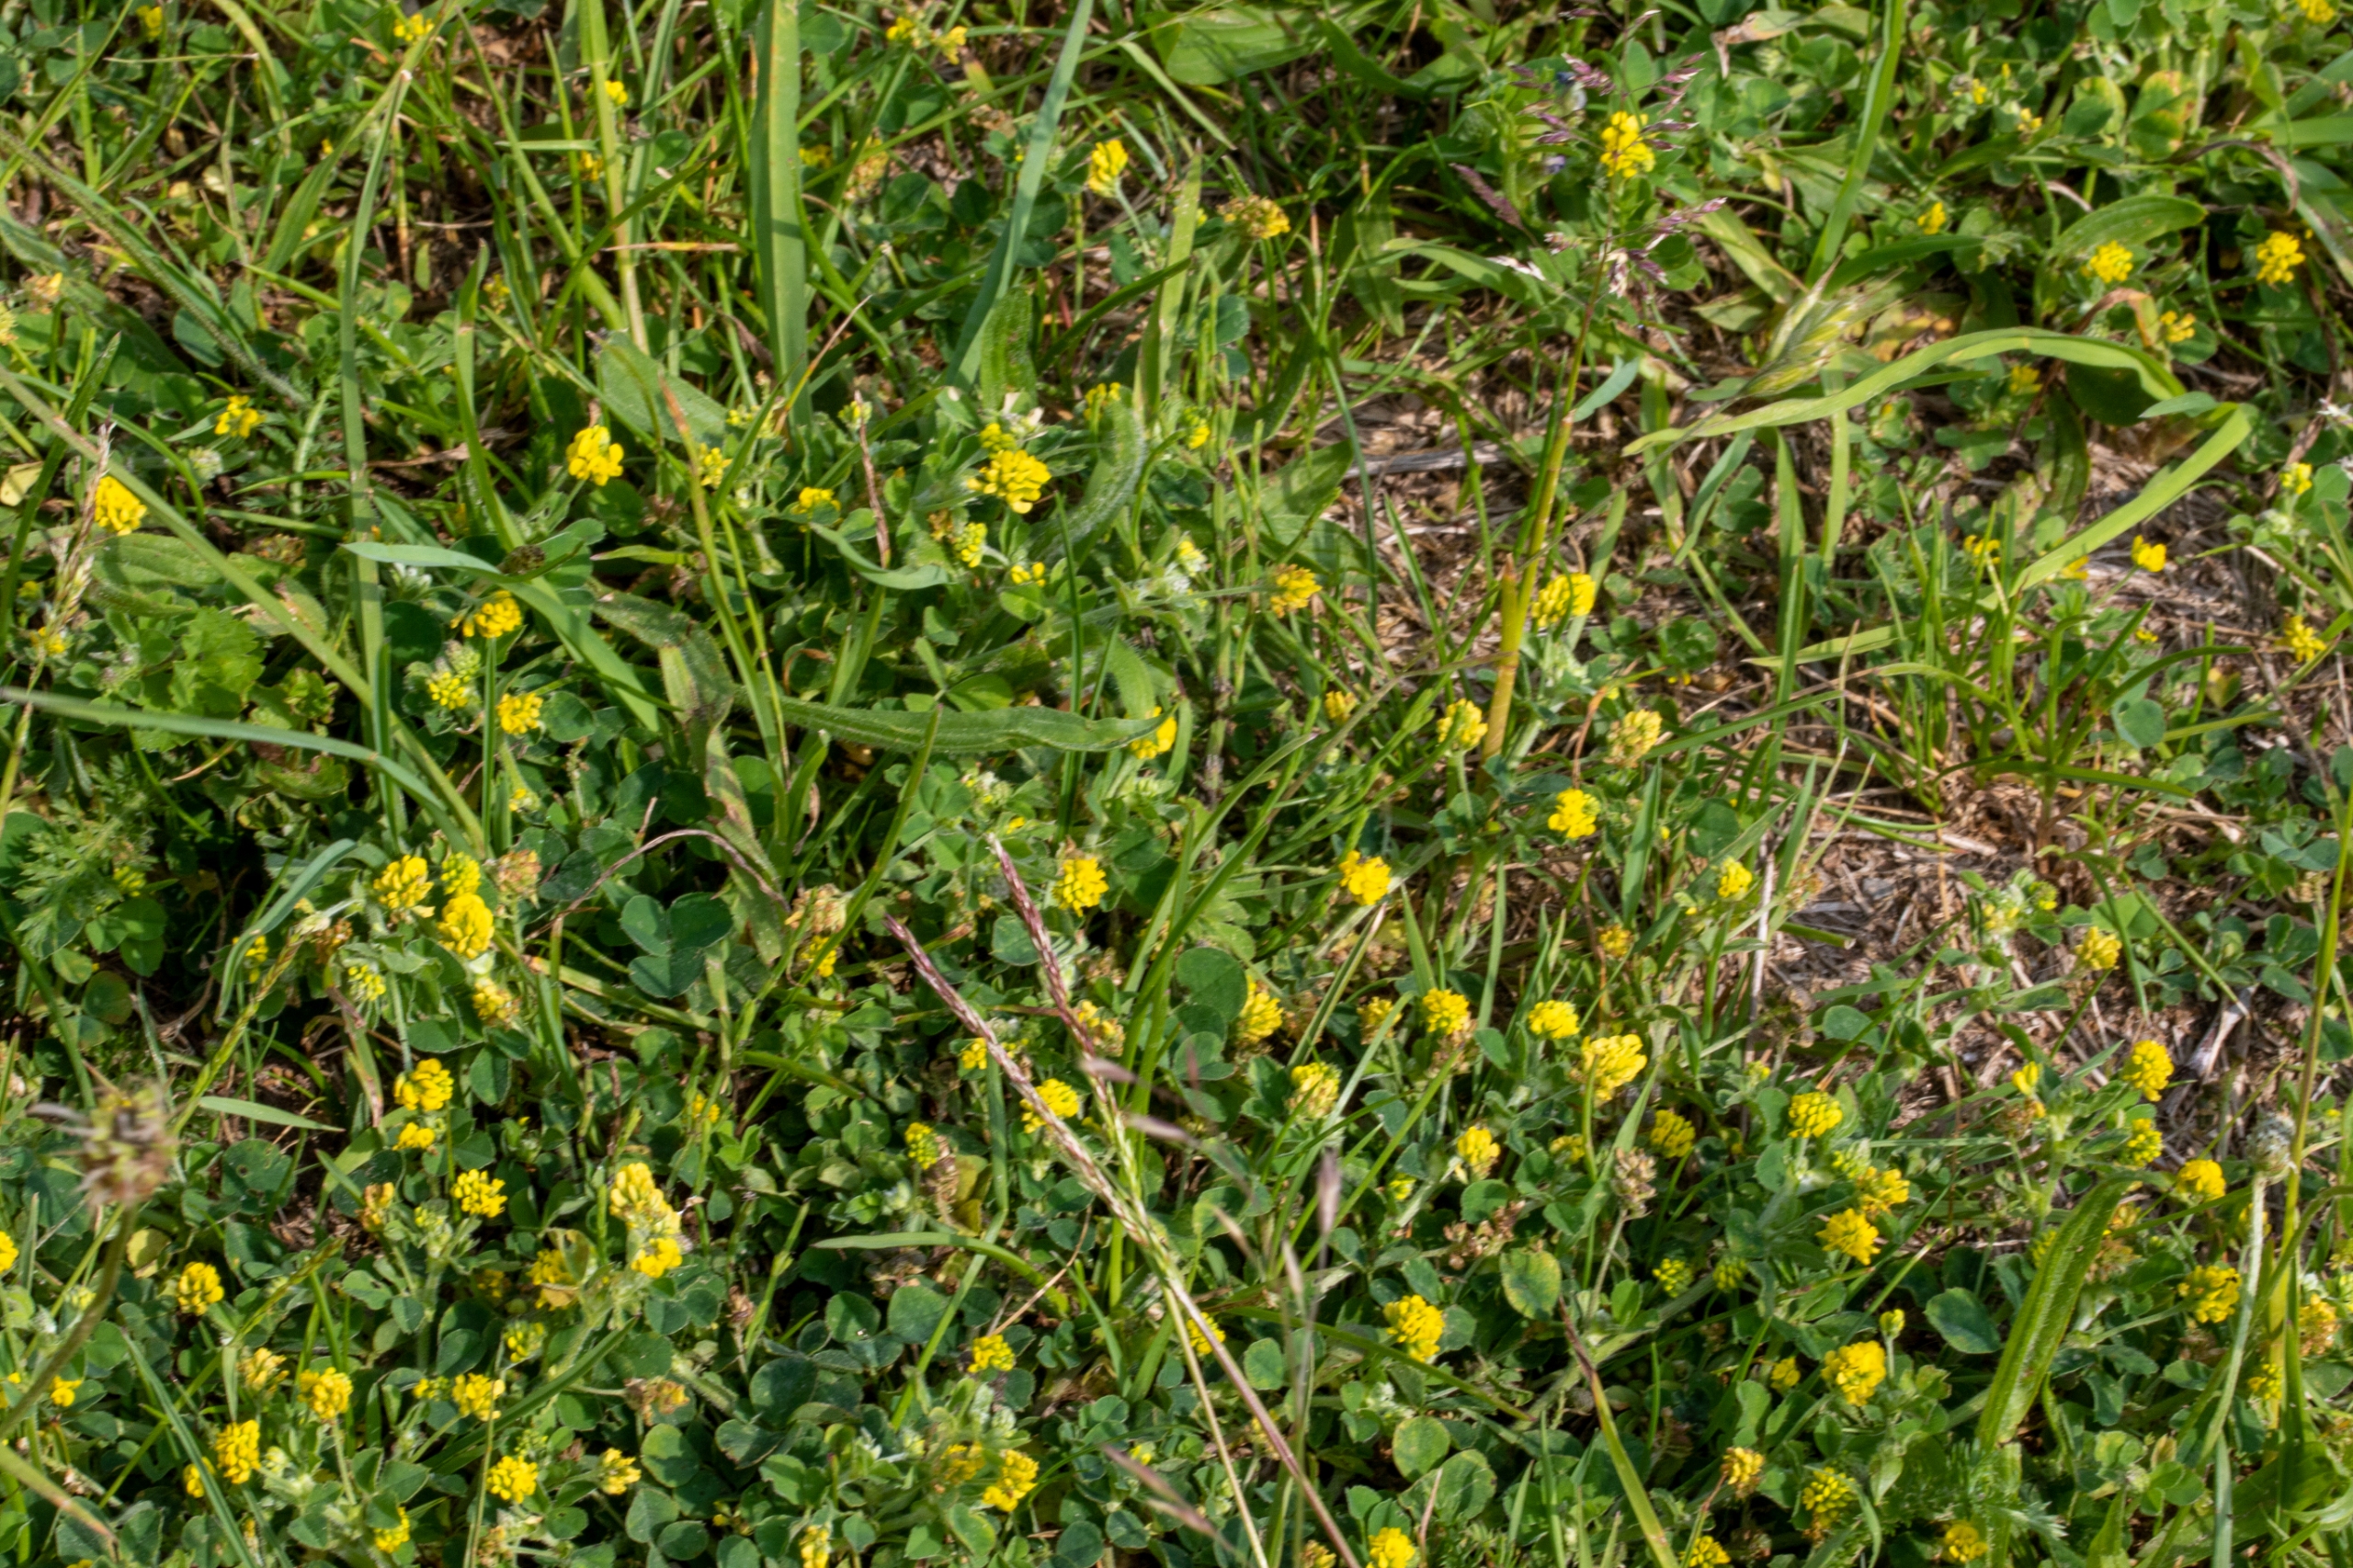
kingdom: Plantae
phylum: Tracheophyta
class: Magnoliopsida
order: Fabales
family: Fabaceae
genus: Medicago
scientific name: Medicago lupulina
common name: Humle-sneglebælg
